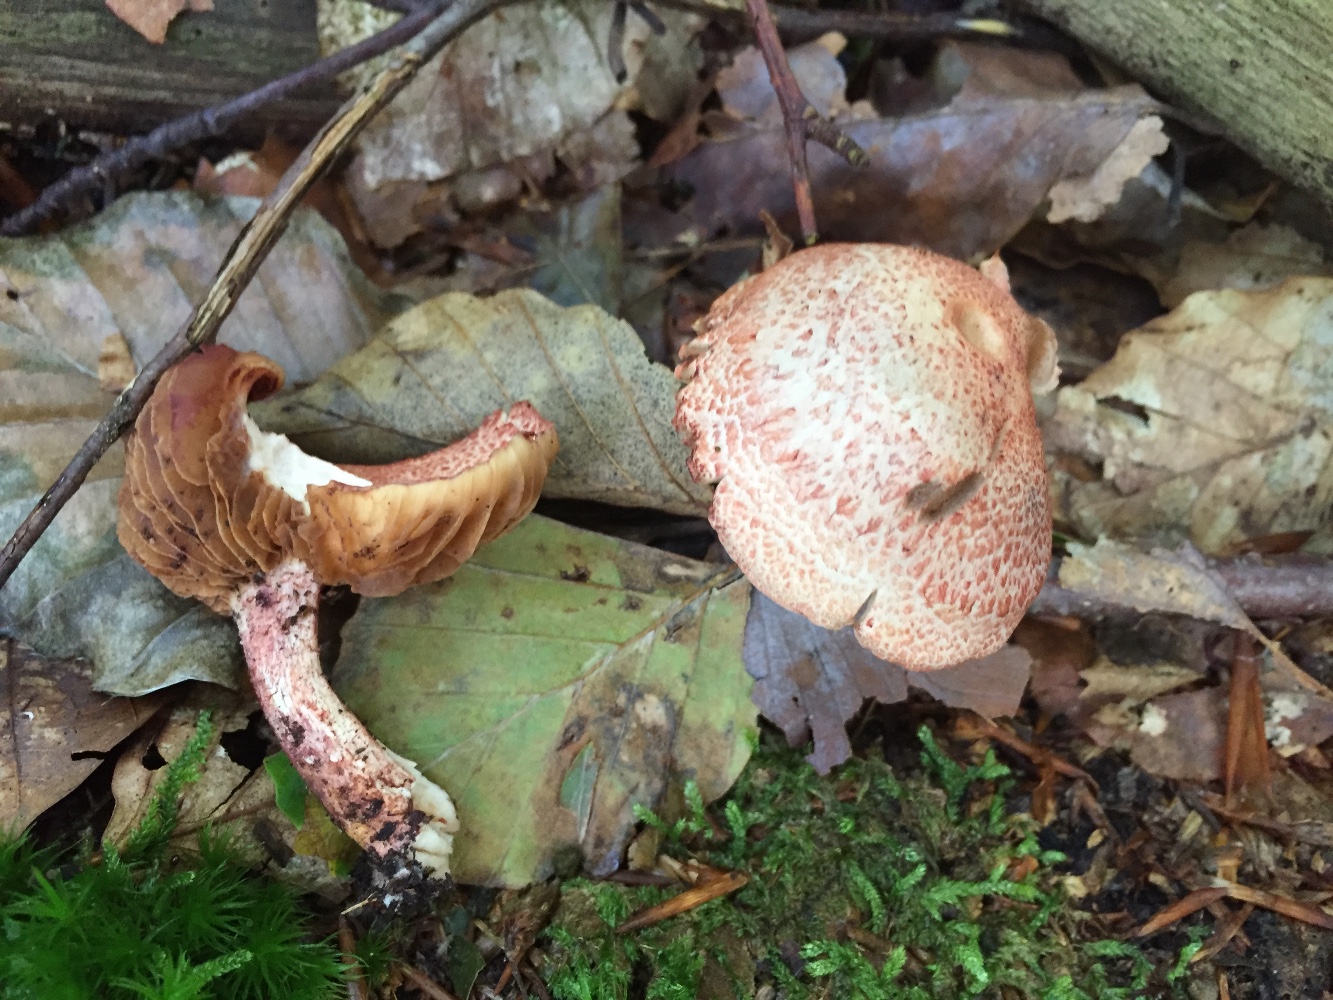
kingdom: Fungi
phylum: Basidiomycota
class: Agaricomycetes
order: Agaricales
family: Cortinariaceae
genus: Cortinarius
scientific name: Cortinarius bolaris
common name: cinnoberskællet slørhat
